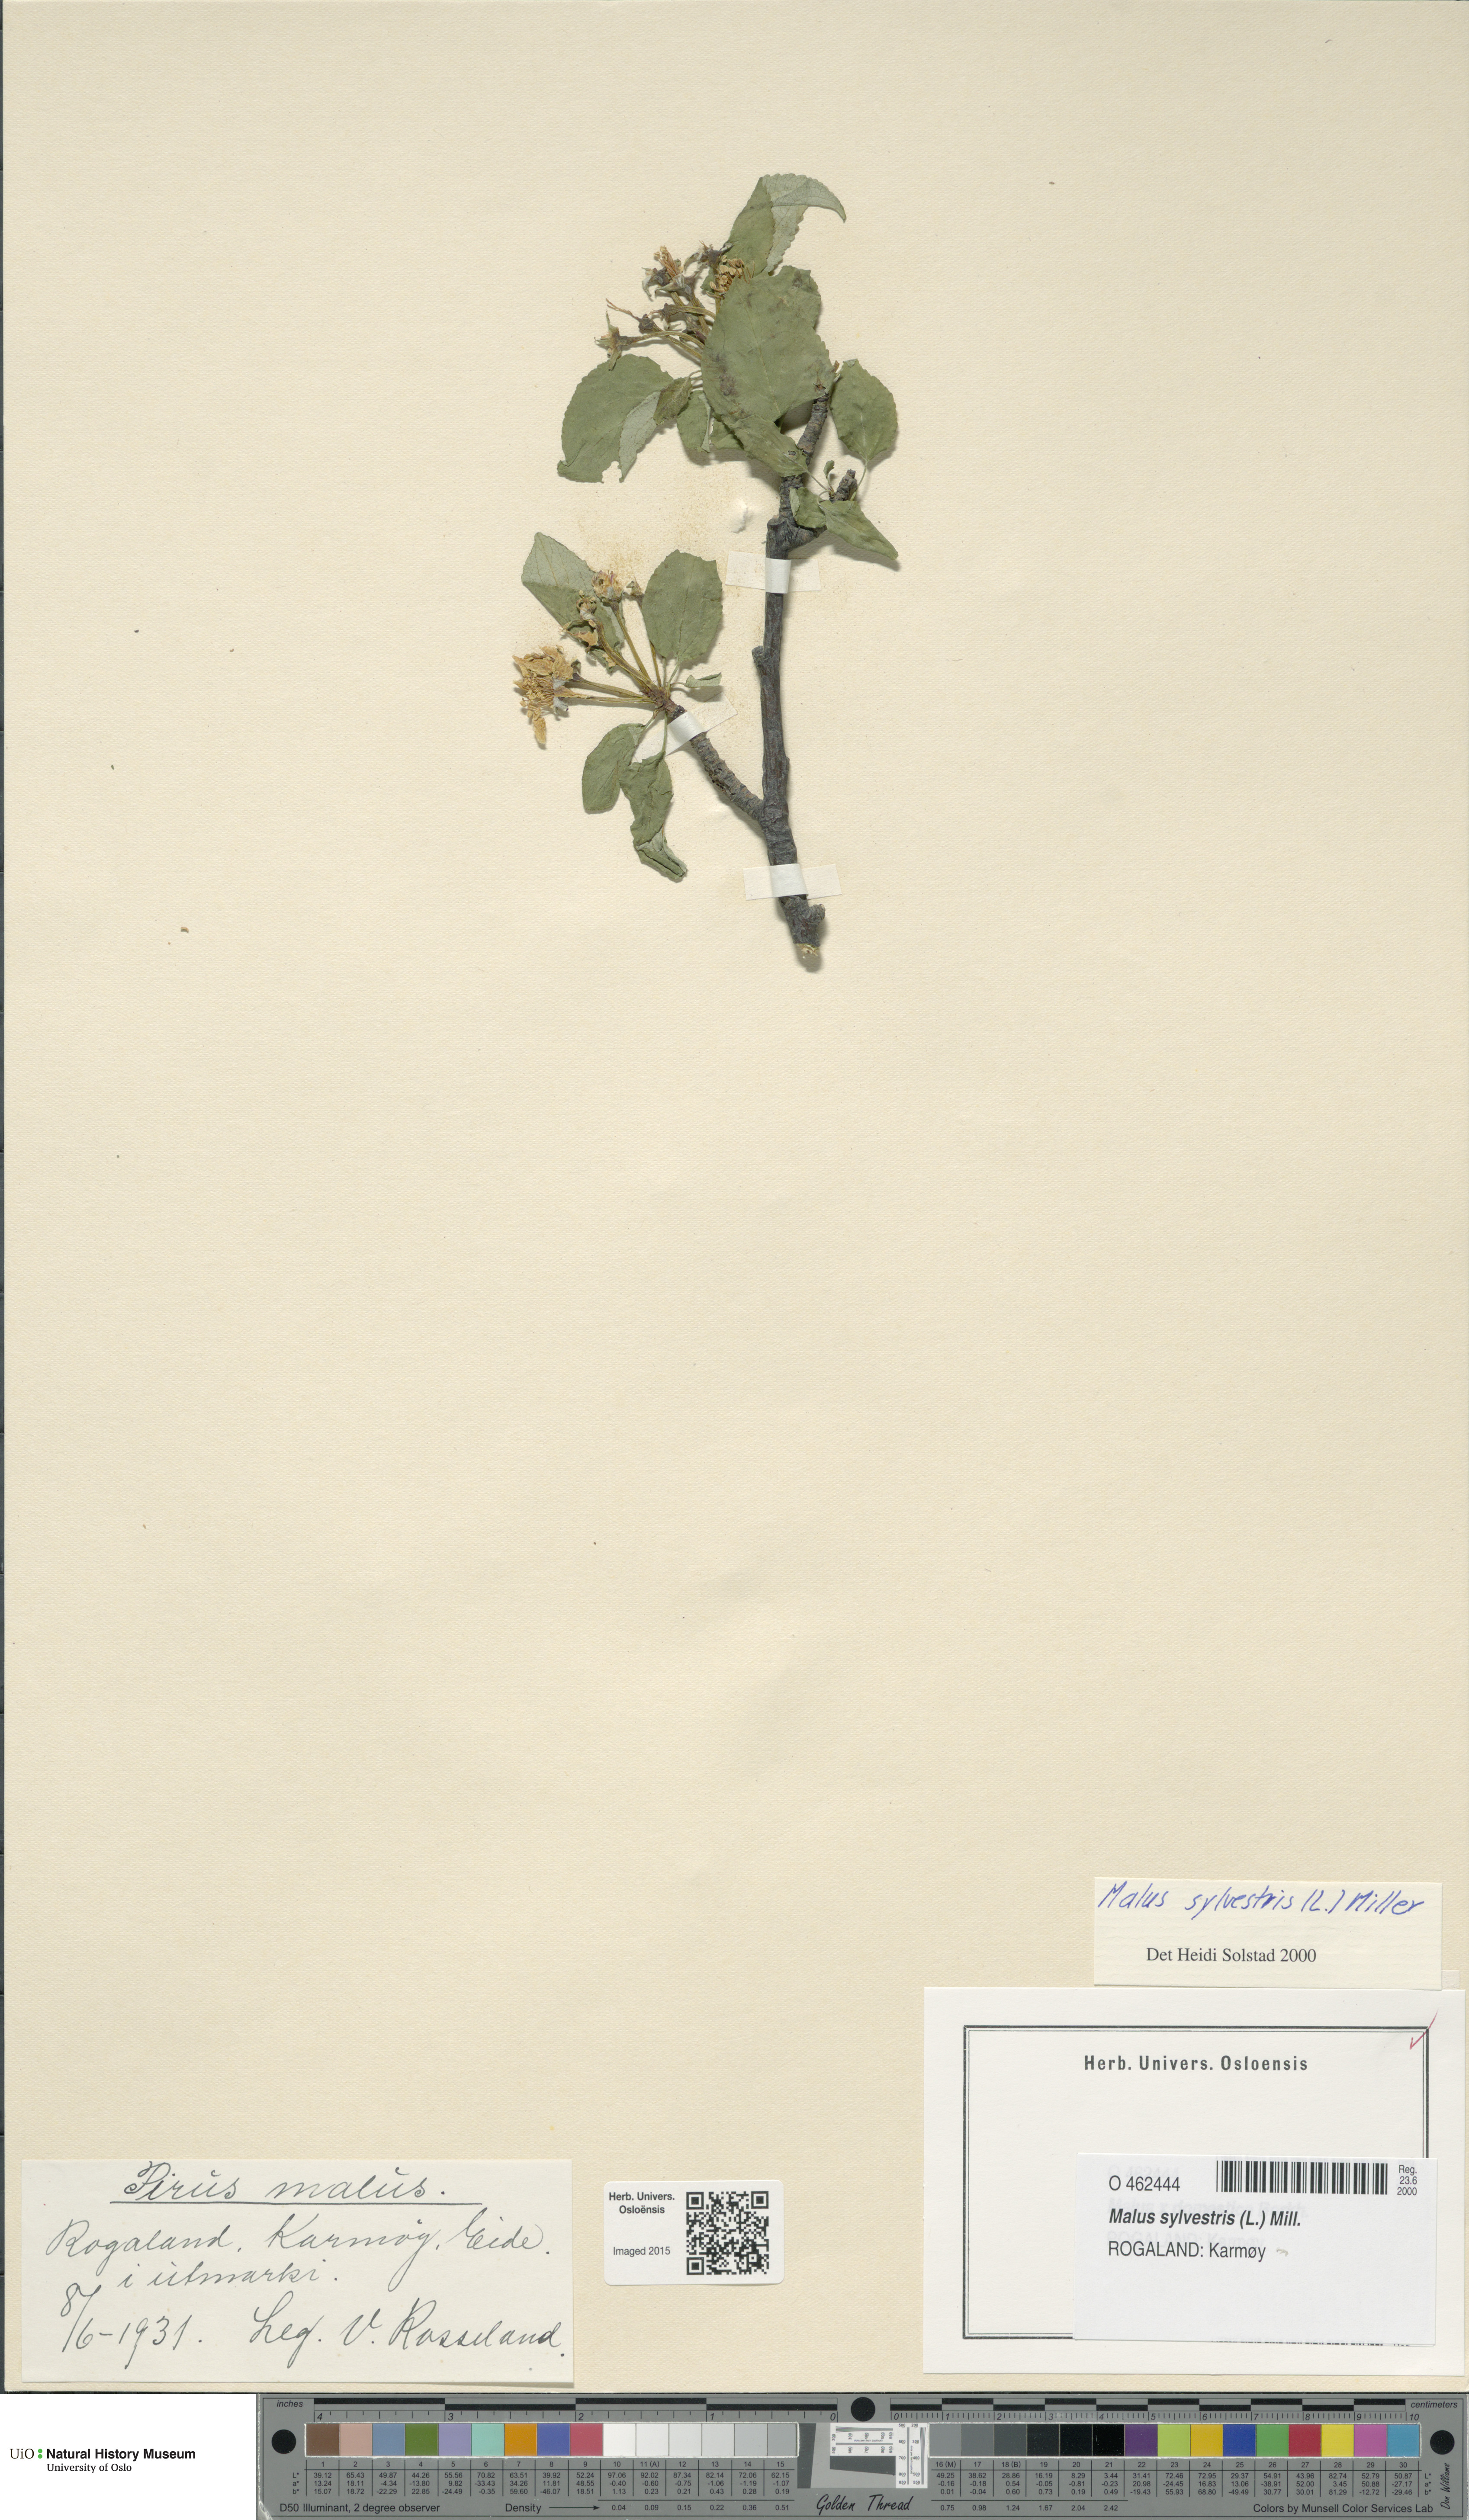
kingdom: Plantae
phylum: Tracheophyta
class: Magnoliopsida
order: Rosales
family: Rosaceae
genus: Malus
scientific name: Malus sylvestris
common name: Crab apple
